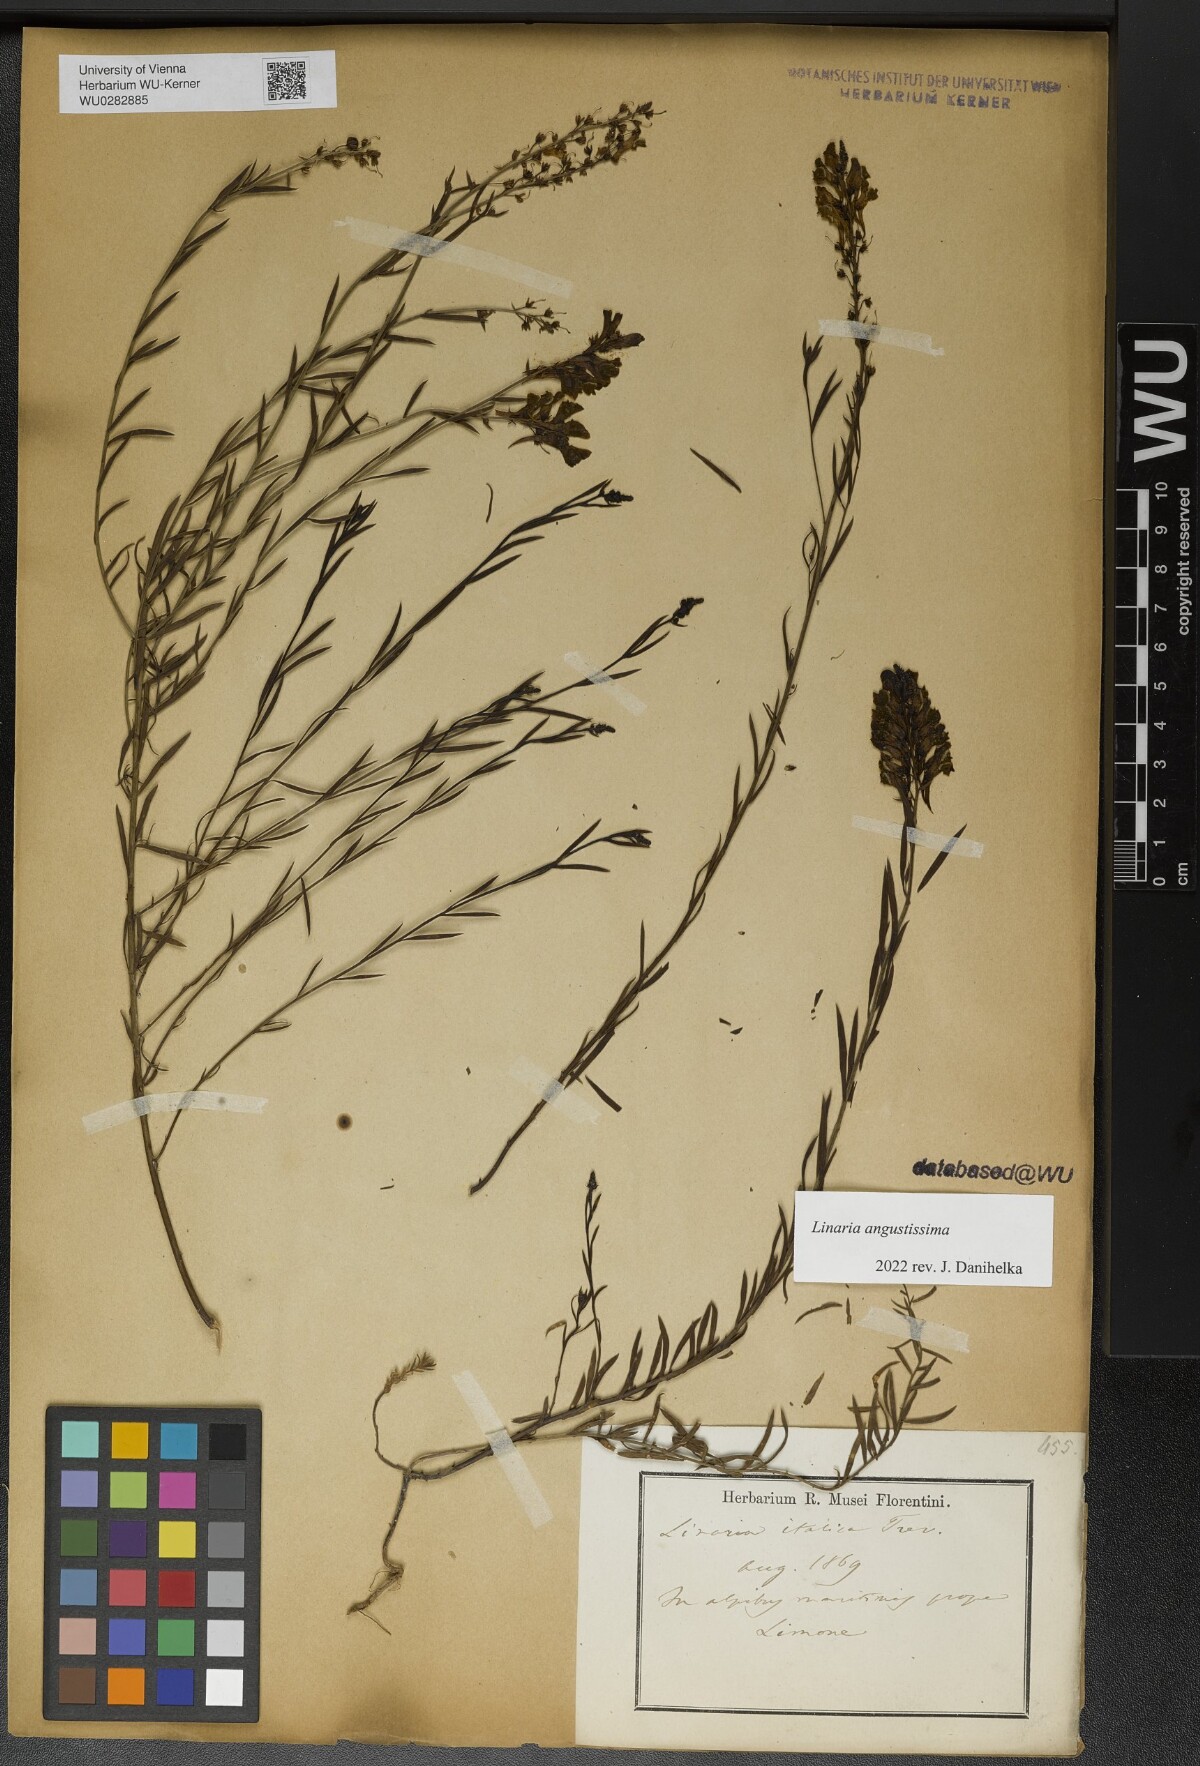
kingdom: Plantae
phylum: Tracheophyta
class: Magnoliopsida
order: Lamiales
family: Plantaginaceae
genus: Linaria
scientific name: Linaria angustissima
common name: Italian toadflax
